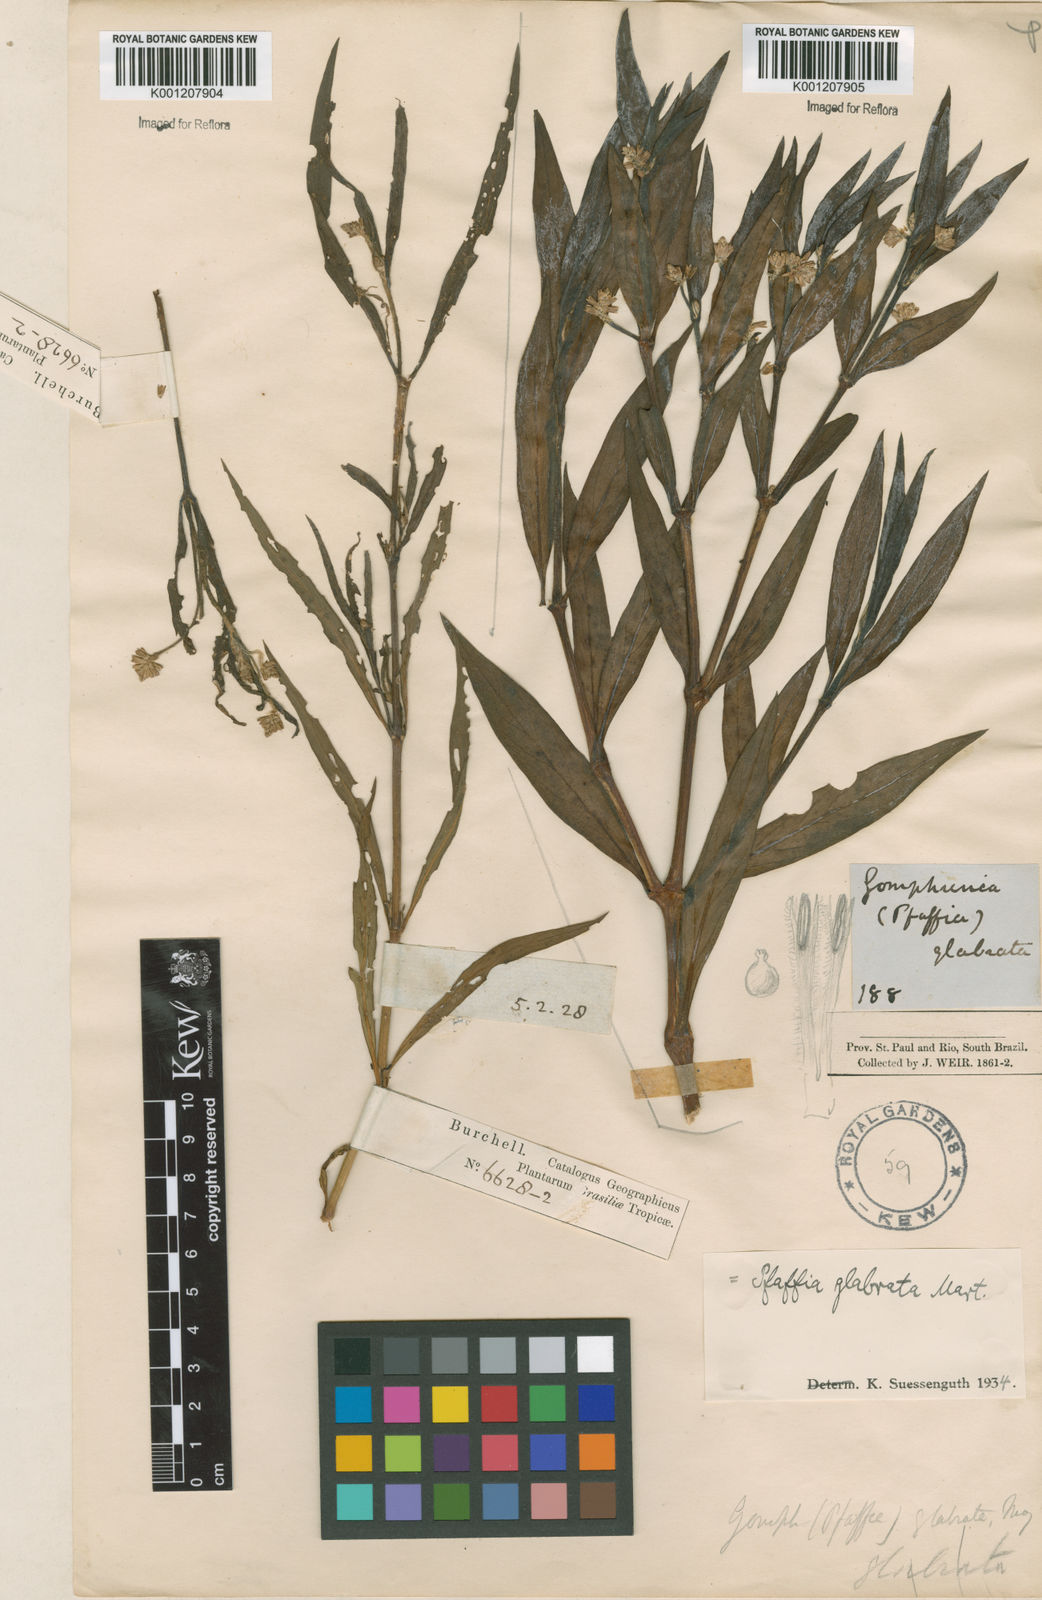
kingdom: Plantae
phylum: Tracheophyta
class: Magnoliopsida
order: Caryophyllales
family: Amaranthaceae
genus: Pfaffia
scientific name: Pfaffia glabrata
